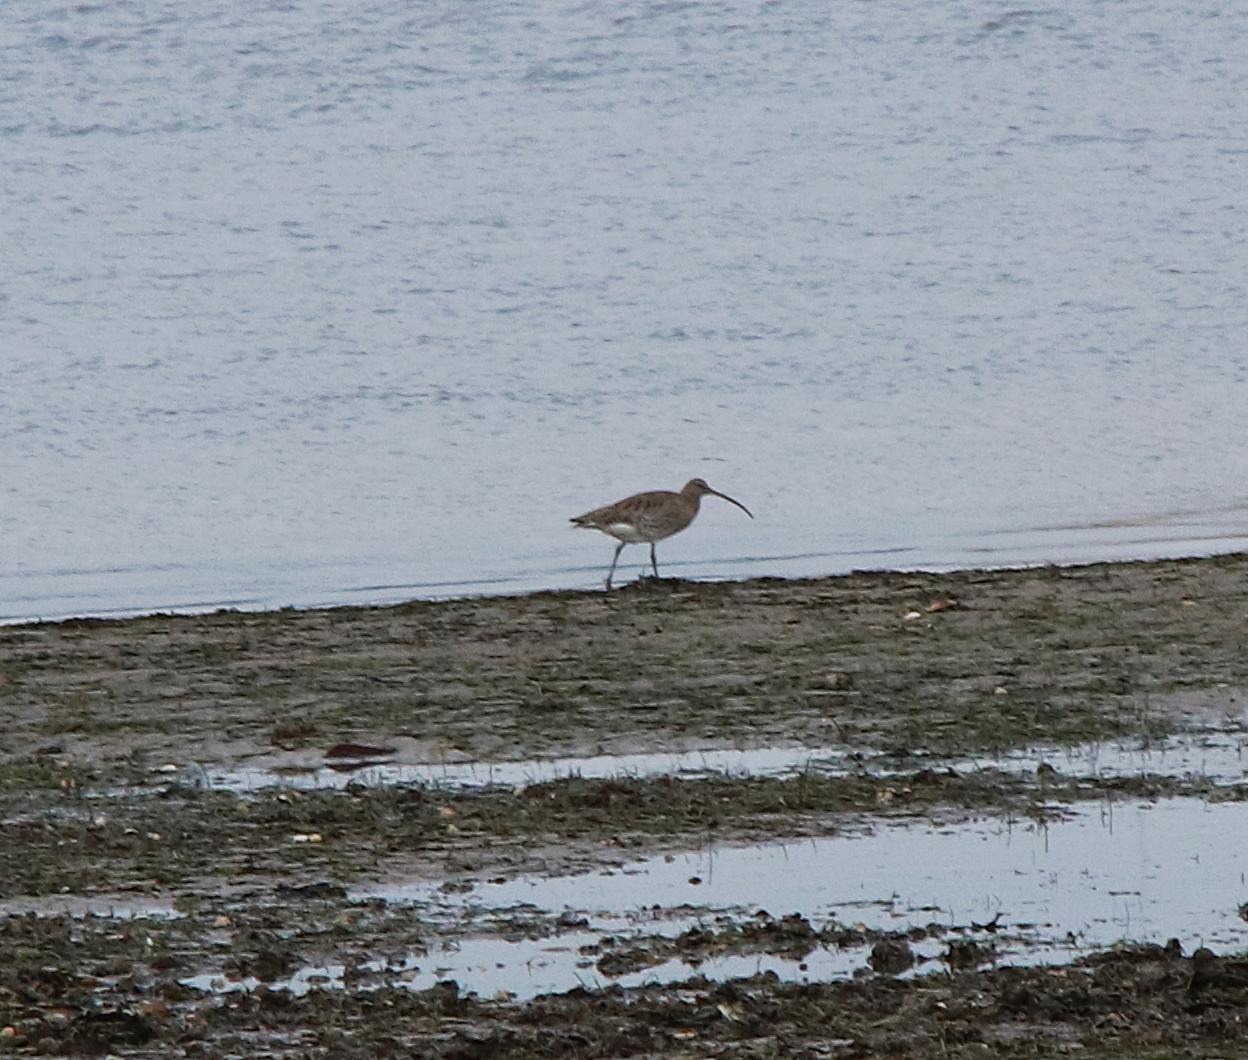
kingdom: Animalia
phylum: Chordata
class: Aves
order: Charadriiformes
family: Scolopacidae
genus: Numenius
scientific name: Numenius arquata
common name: Storspove
